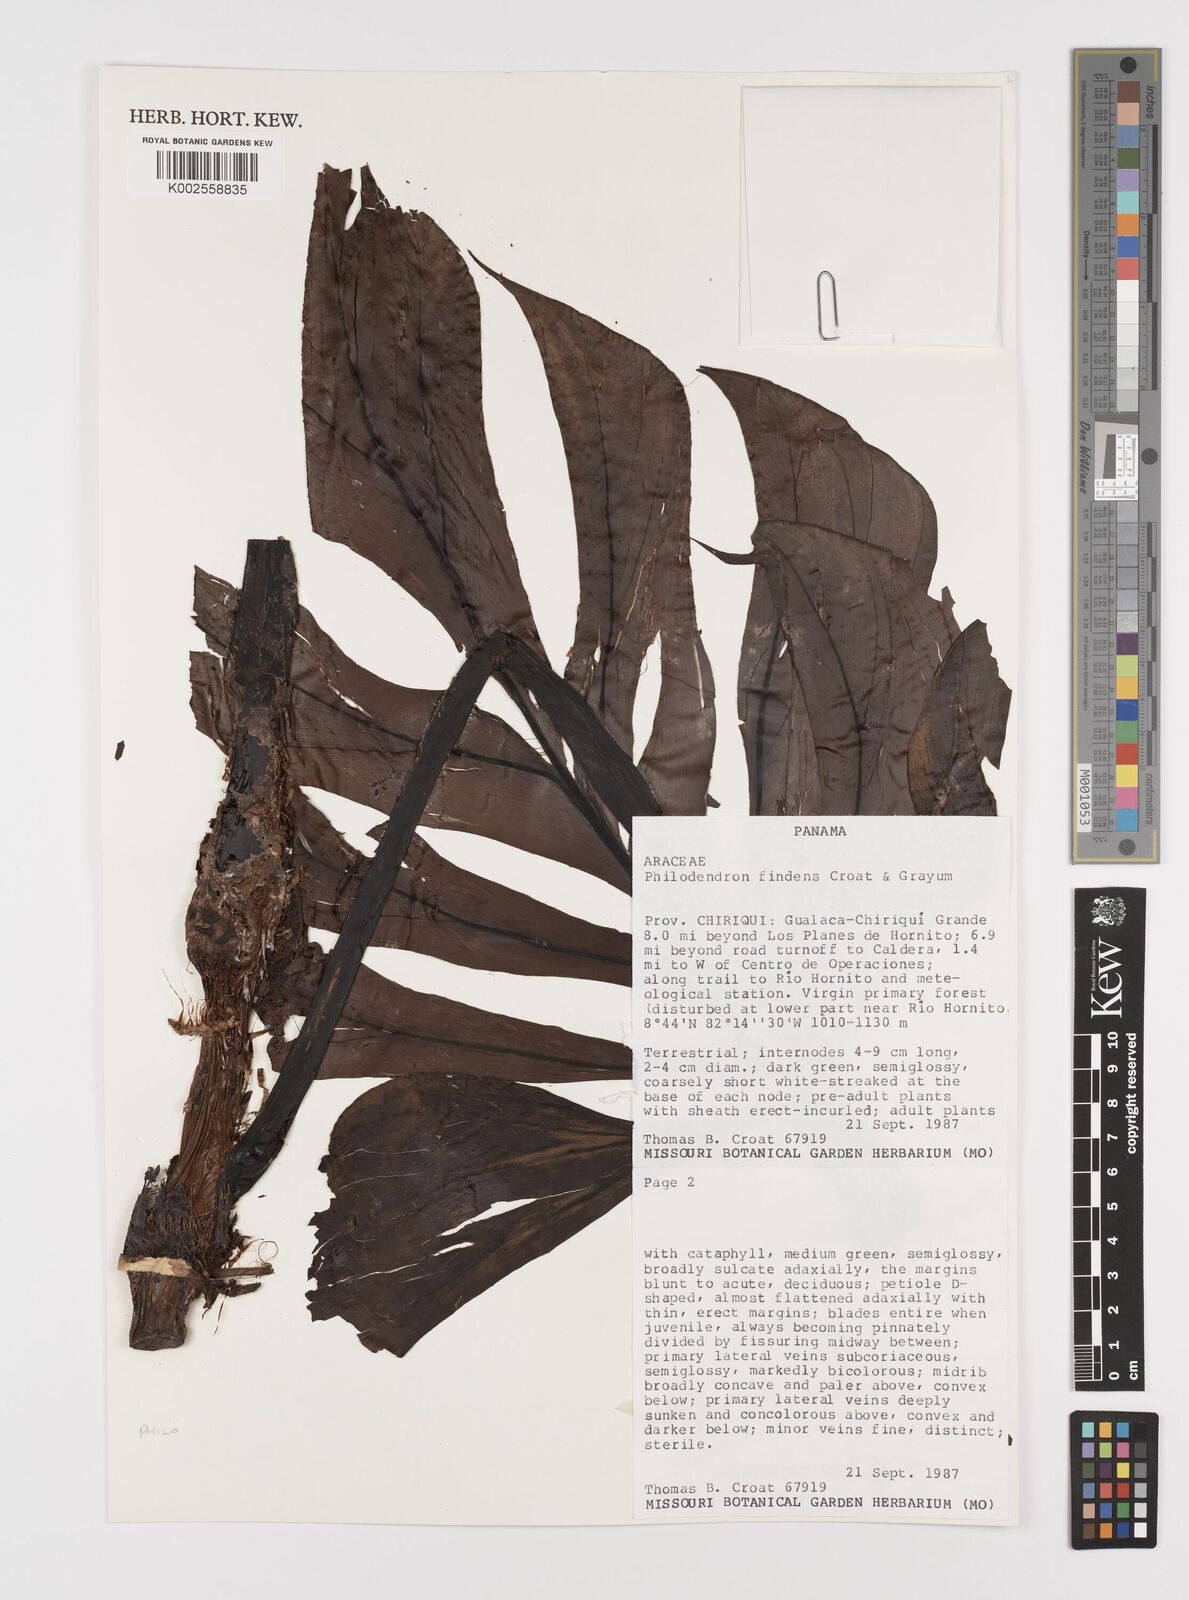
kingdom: Plantae
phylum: Tracheophyta
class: Liliopsida
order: Alismatales
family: Araceae
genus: Philodendron
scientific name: Philodendron findens
